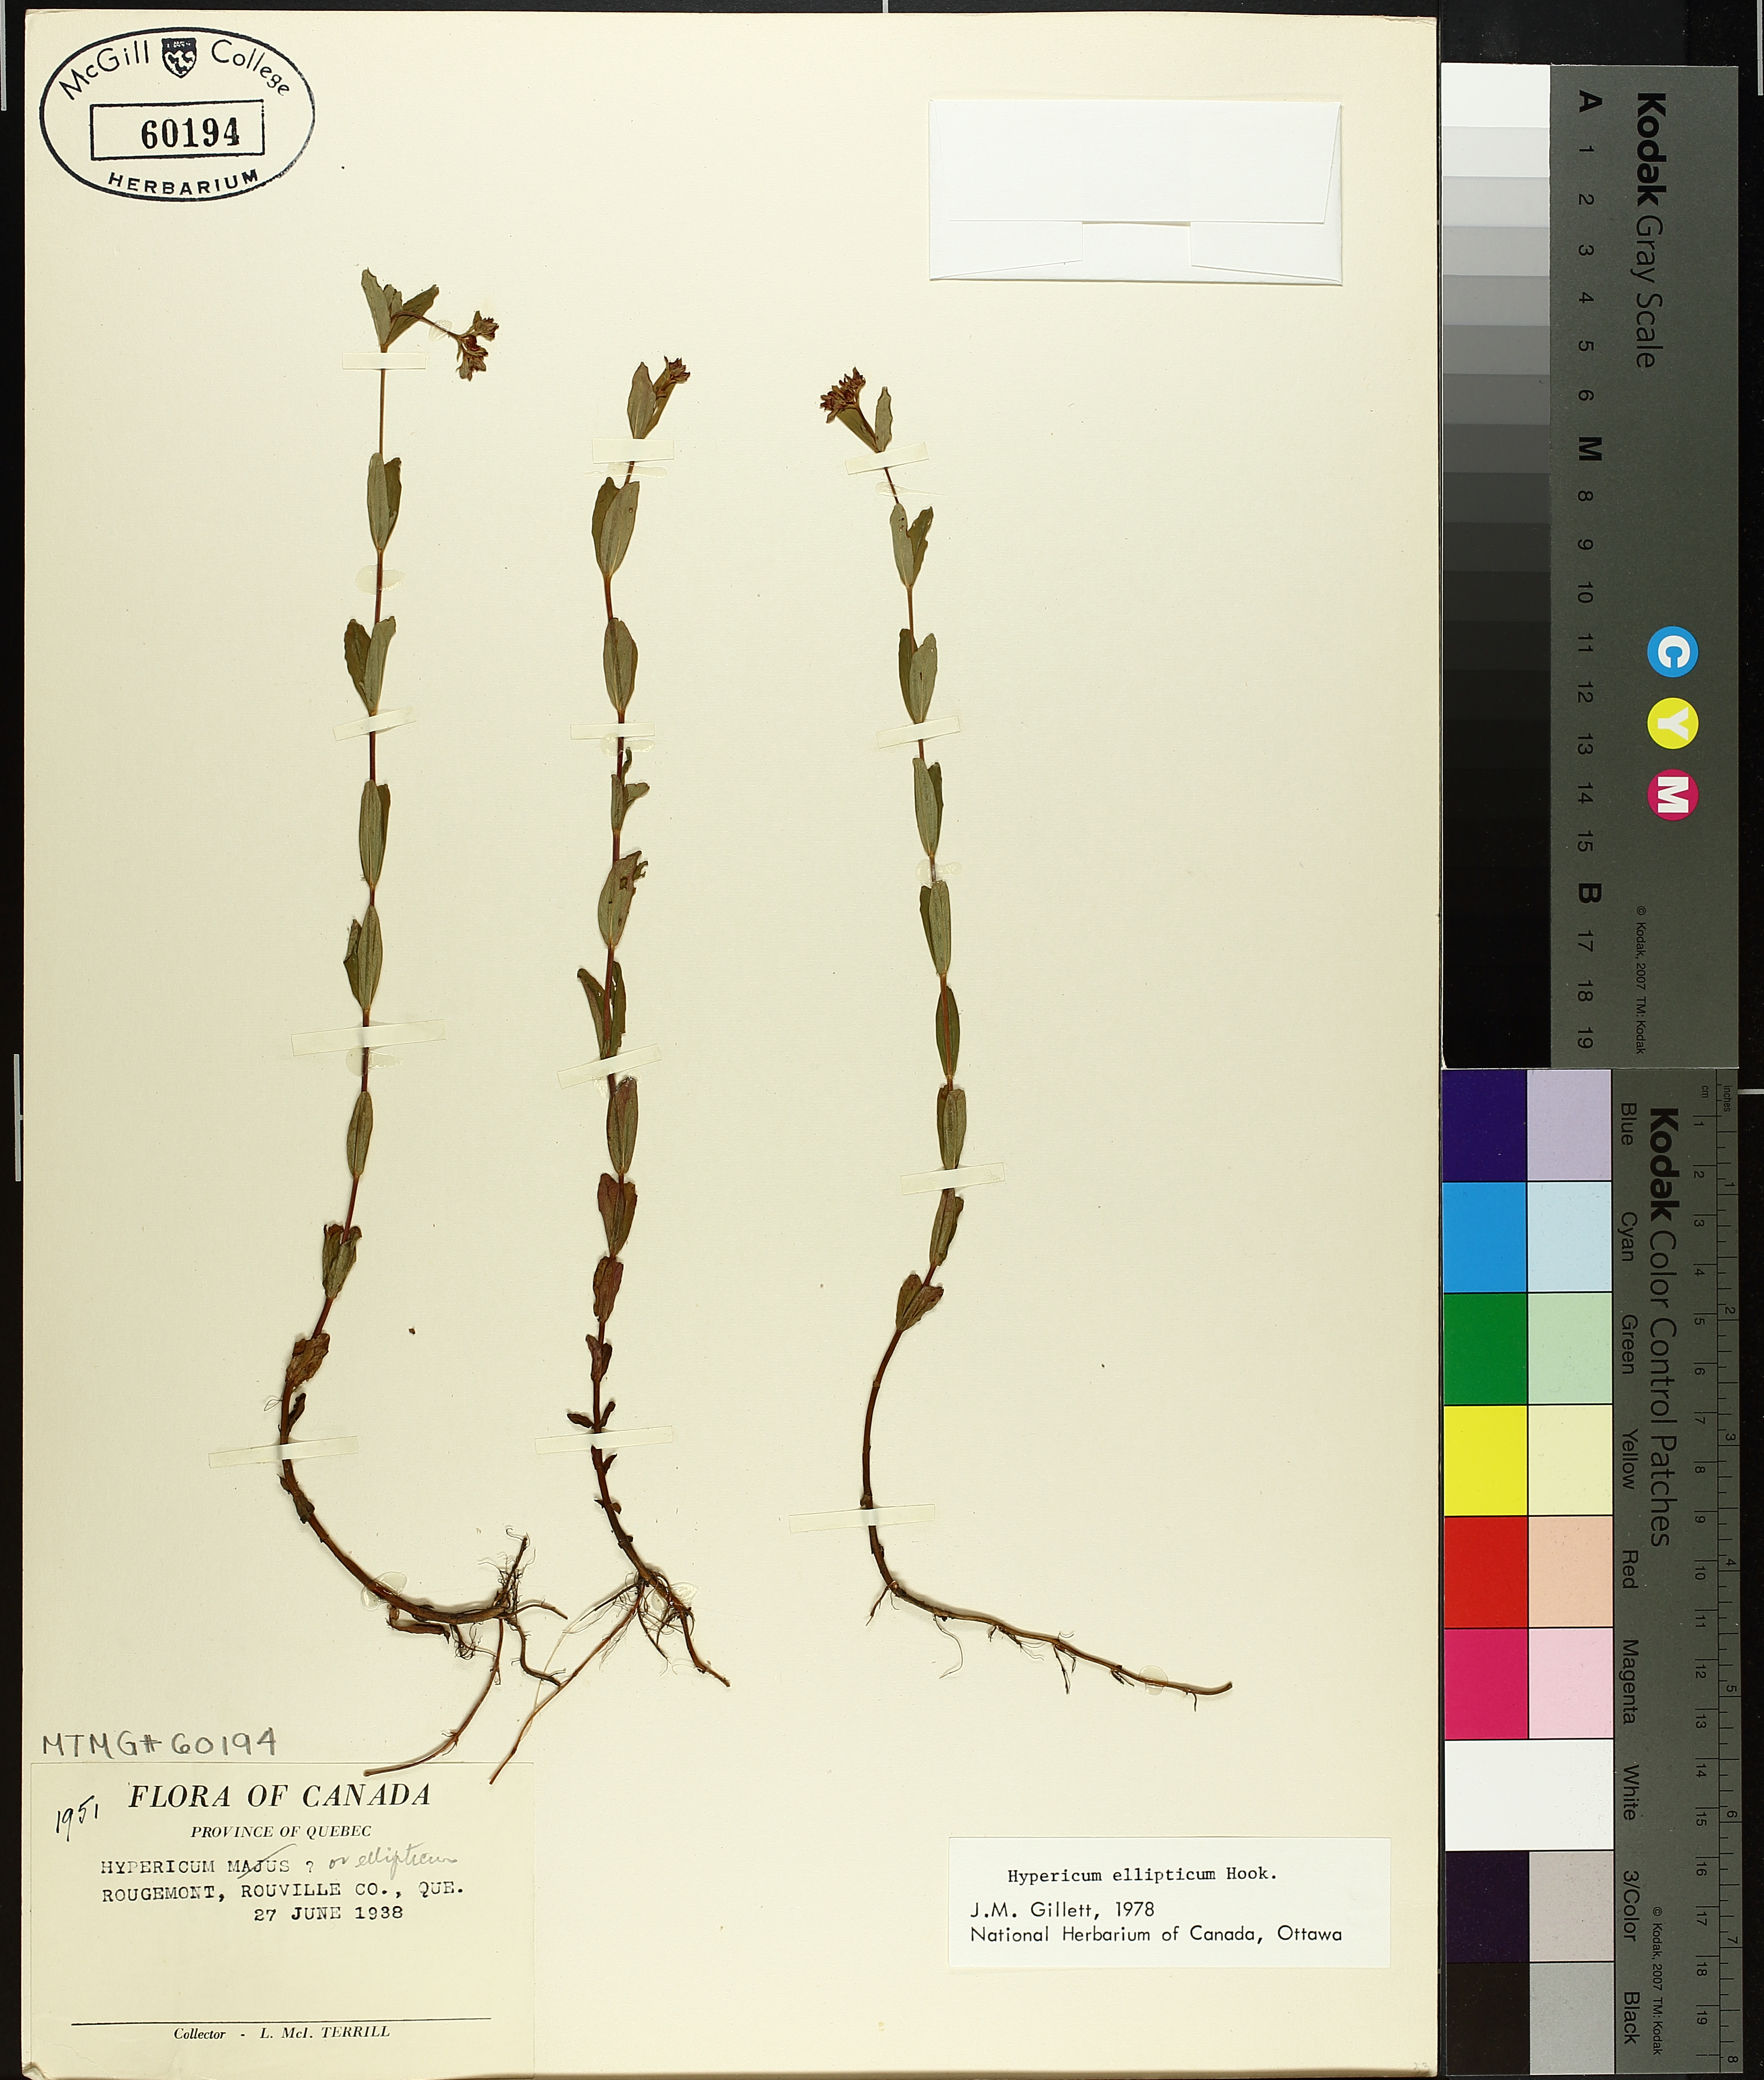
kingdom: Plantae
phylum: Tracheophyta
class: Magnoliopsida
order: Malpighiales
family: Hypericaceae
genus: Hypericum
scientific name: Hypericum ellipticum
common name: Elliptic st. john's-wort
